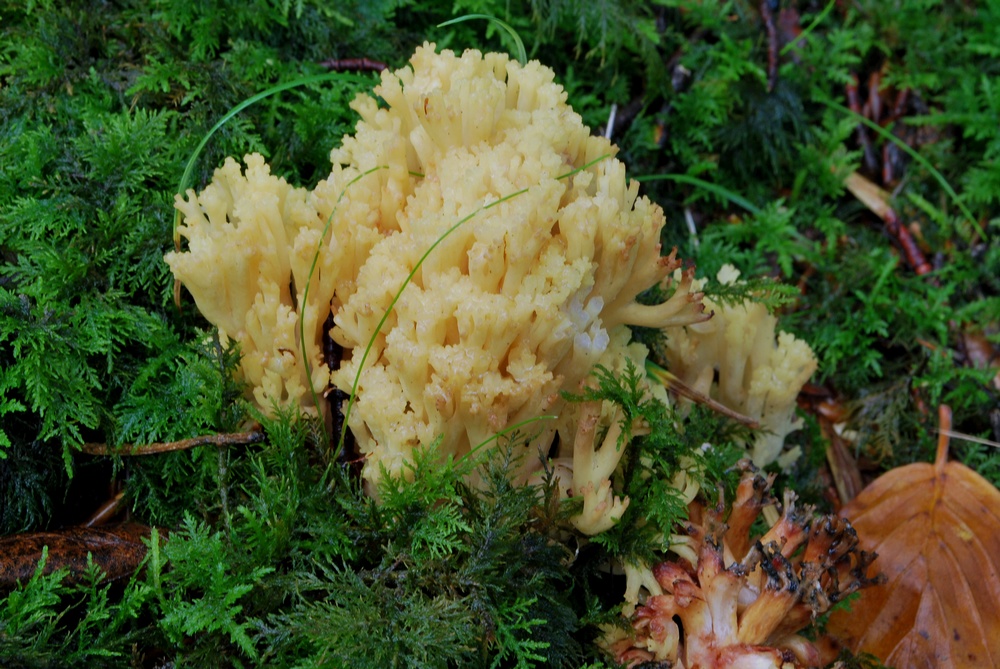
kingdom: Fungi
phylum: Basidiomycota
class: Agaricomycetes
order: Gomphales
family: Gomphaceae
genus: Ramaria
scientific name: Ramaria sanguinea
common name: blodplettet koralsvamp
